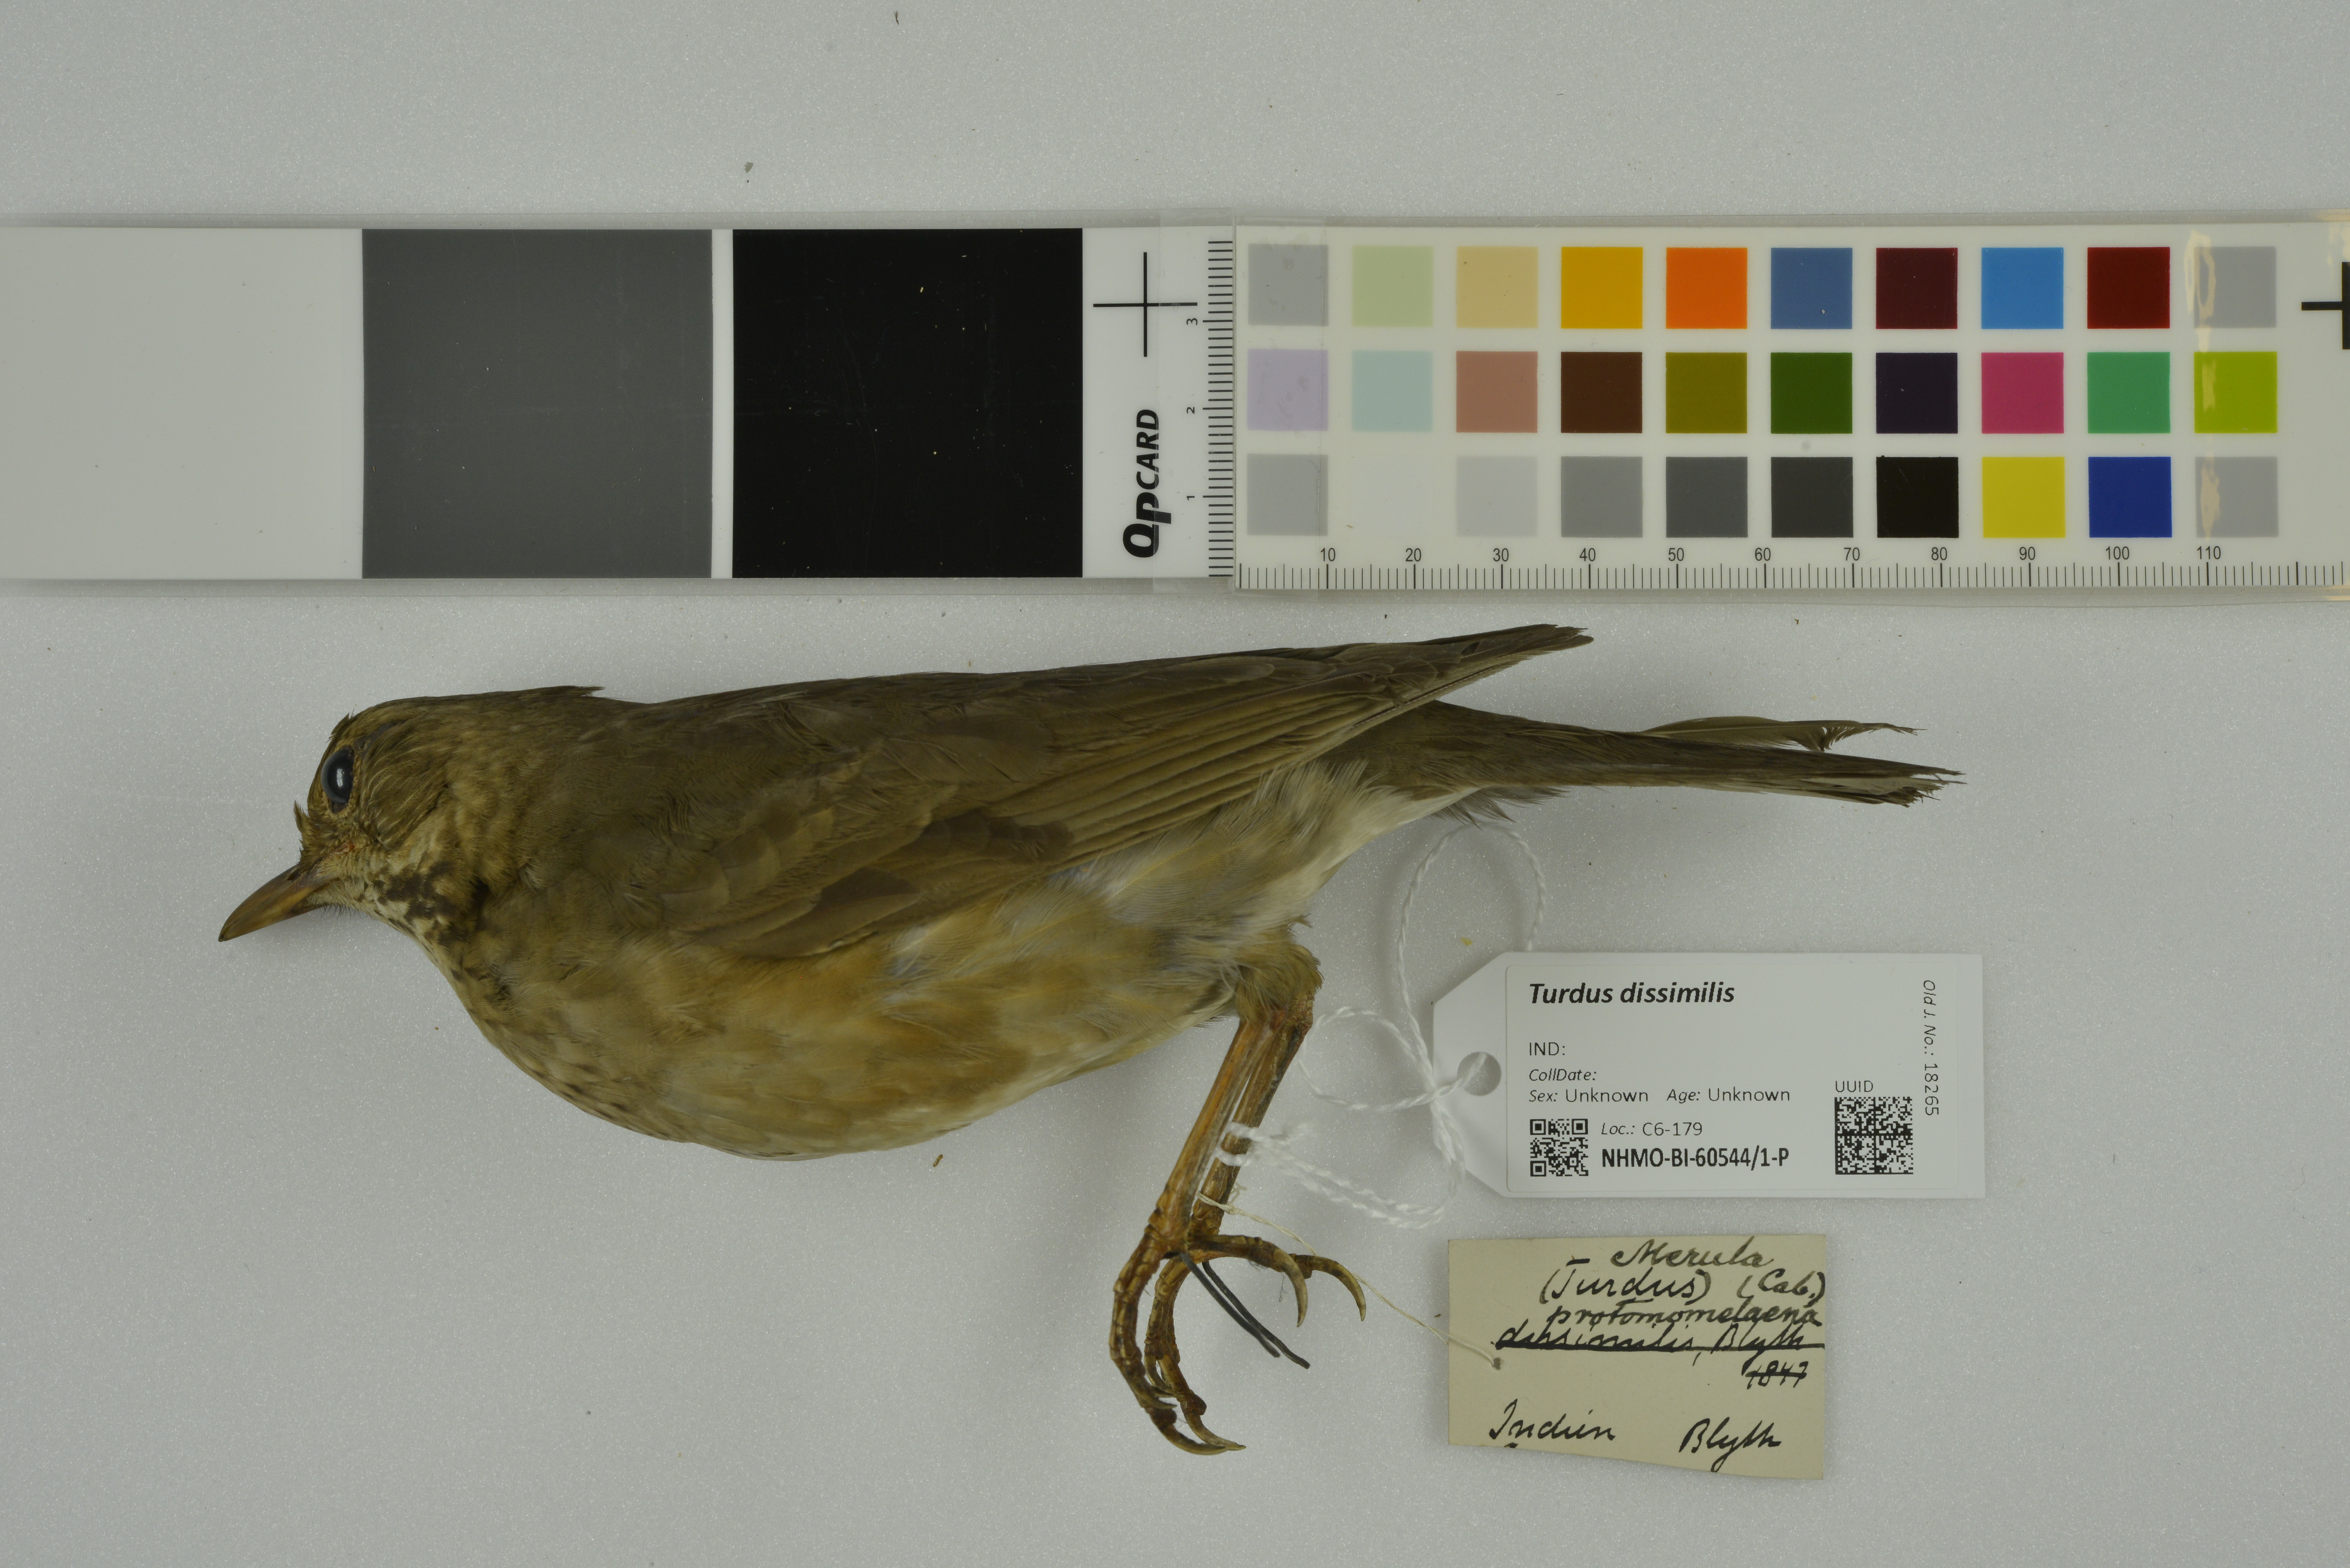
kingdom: Animalia
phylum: Chordata
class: Aves
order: Passeriformes
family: Turdidae
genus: Turdus
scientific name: Turdus dissimilis
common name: Black-breasted thrush
